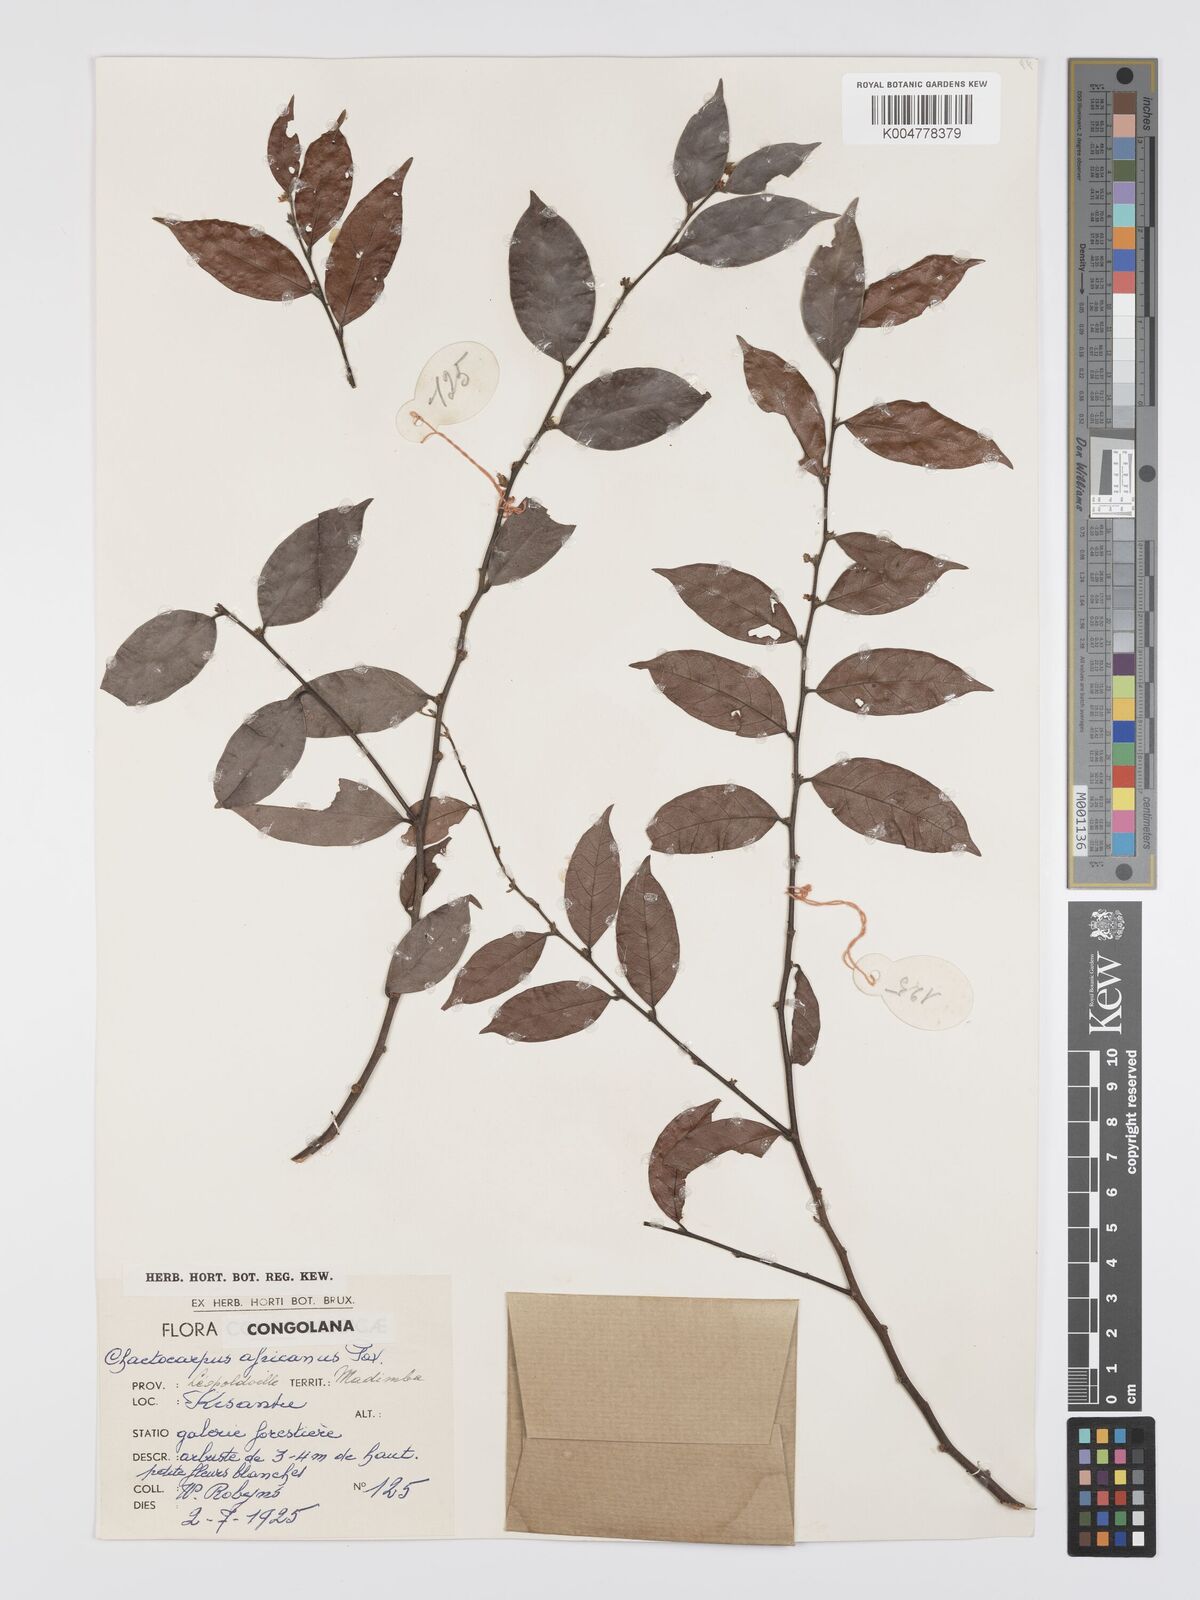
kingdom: Plantae
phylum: Tracheophyta
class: Magnoliopsida
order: Malpighiales
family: Peraceae
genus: Chaetocarpus
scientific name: Chaetocarpus africanus
